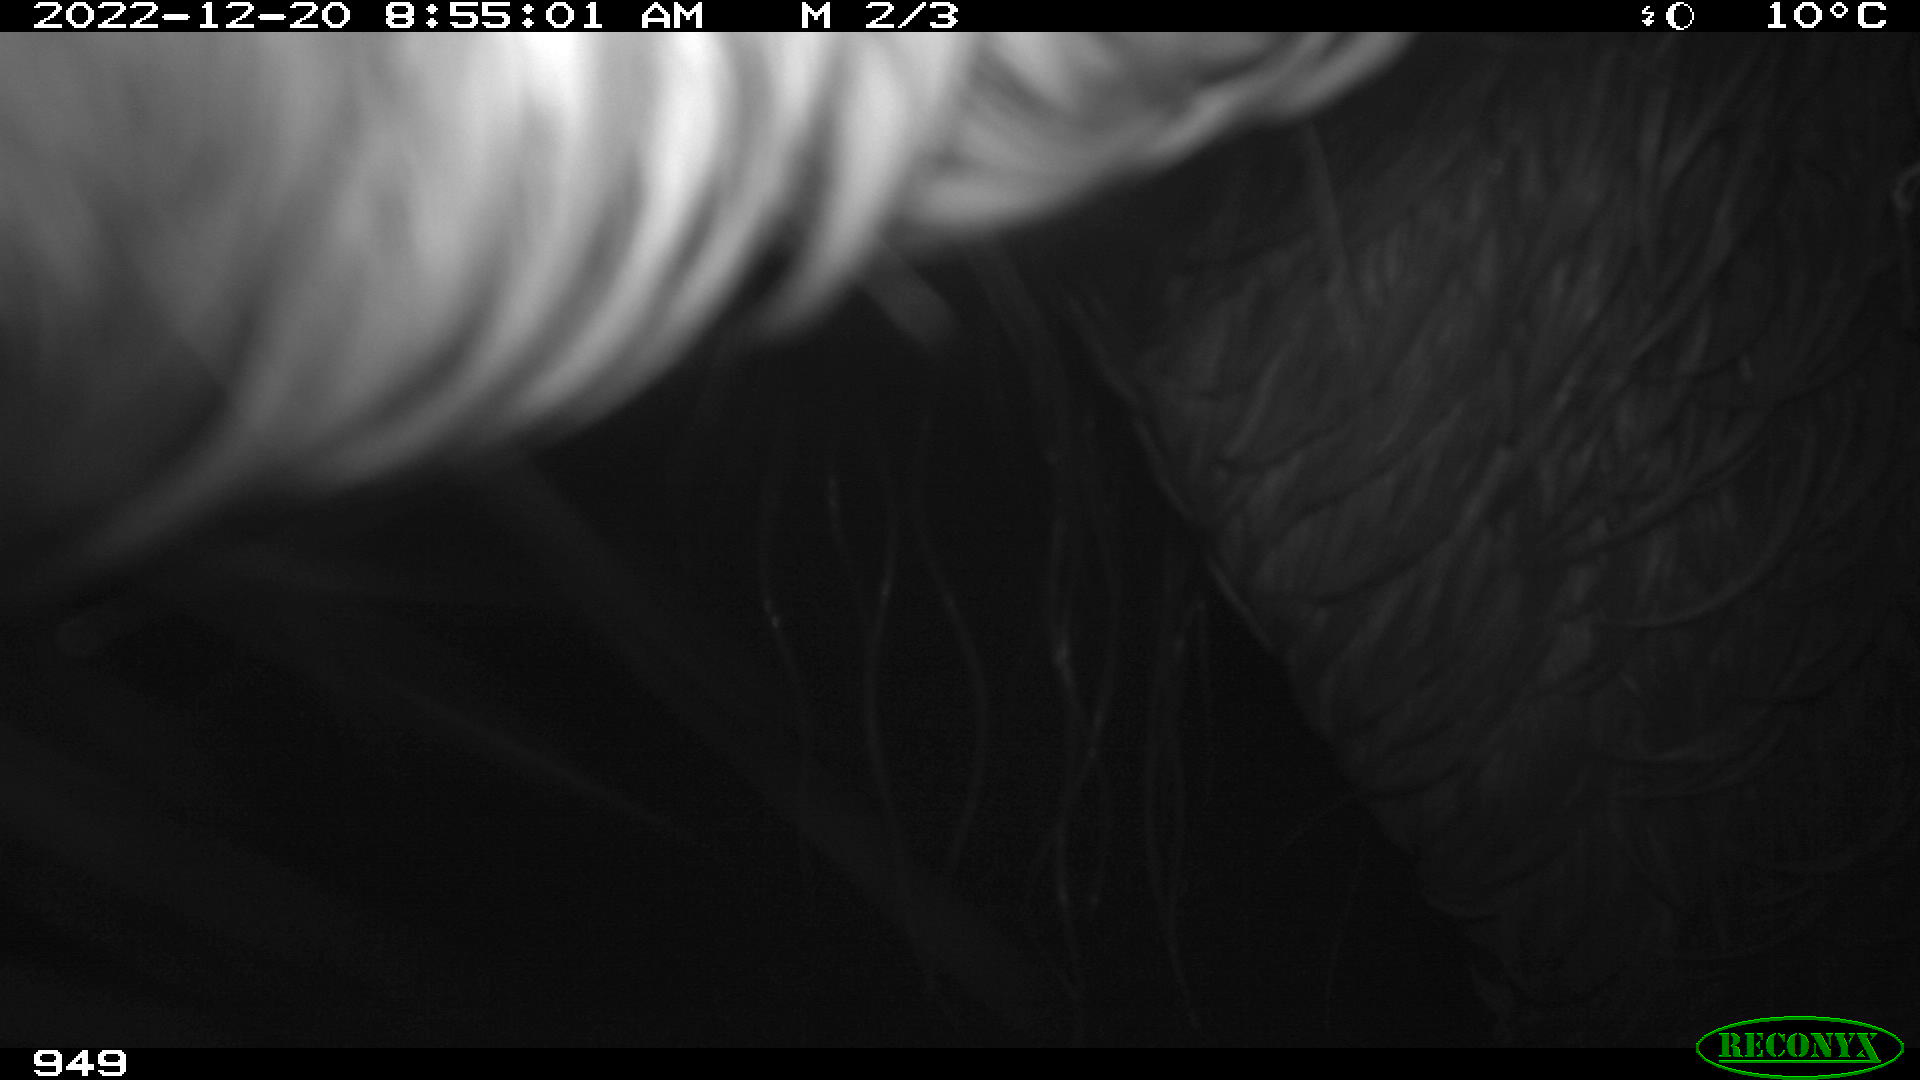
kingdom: Animalia
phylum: Chordata
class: Mammalia
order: Perissodactyla
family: Equidae
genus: Equus
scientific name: Equus caballus
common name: Horse
